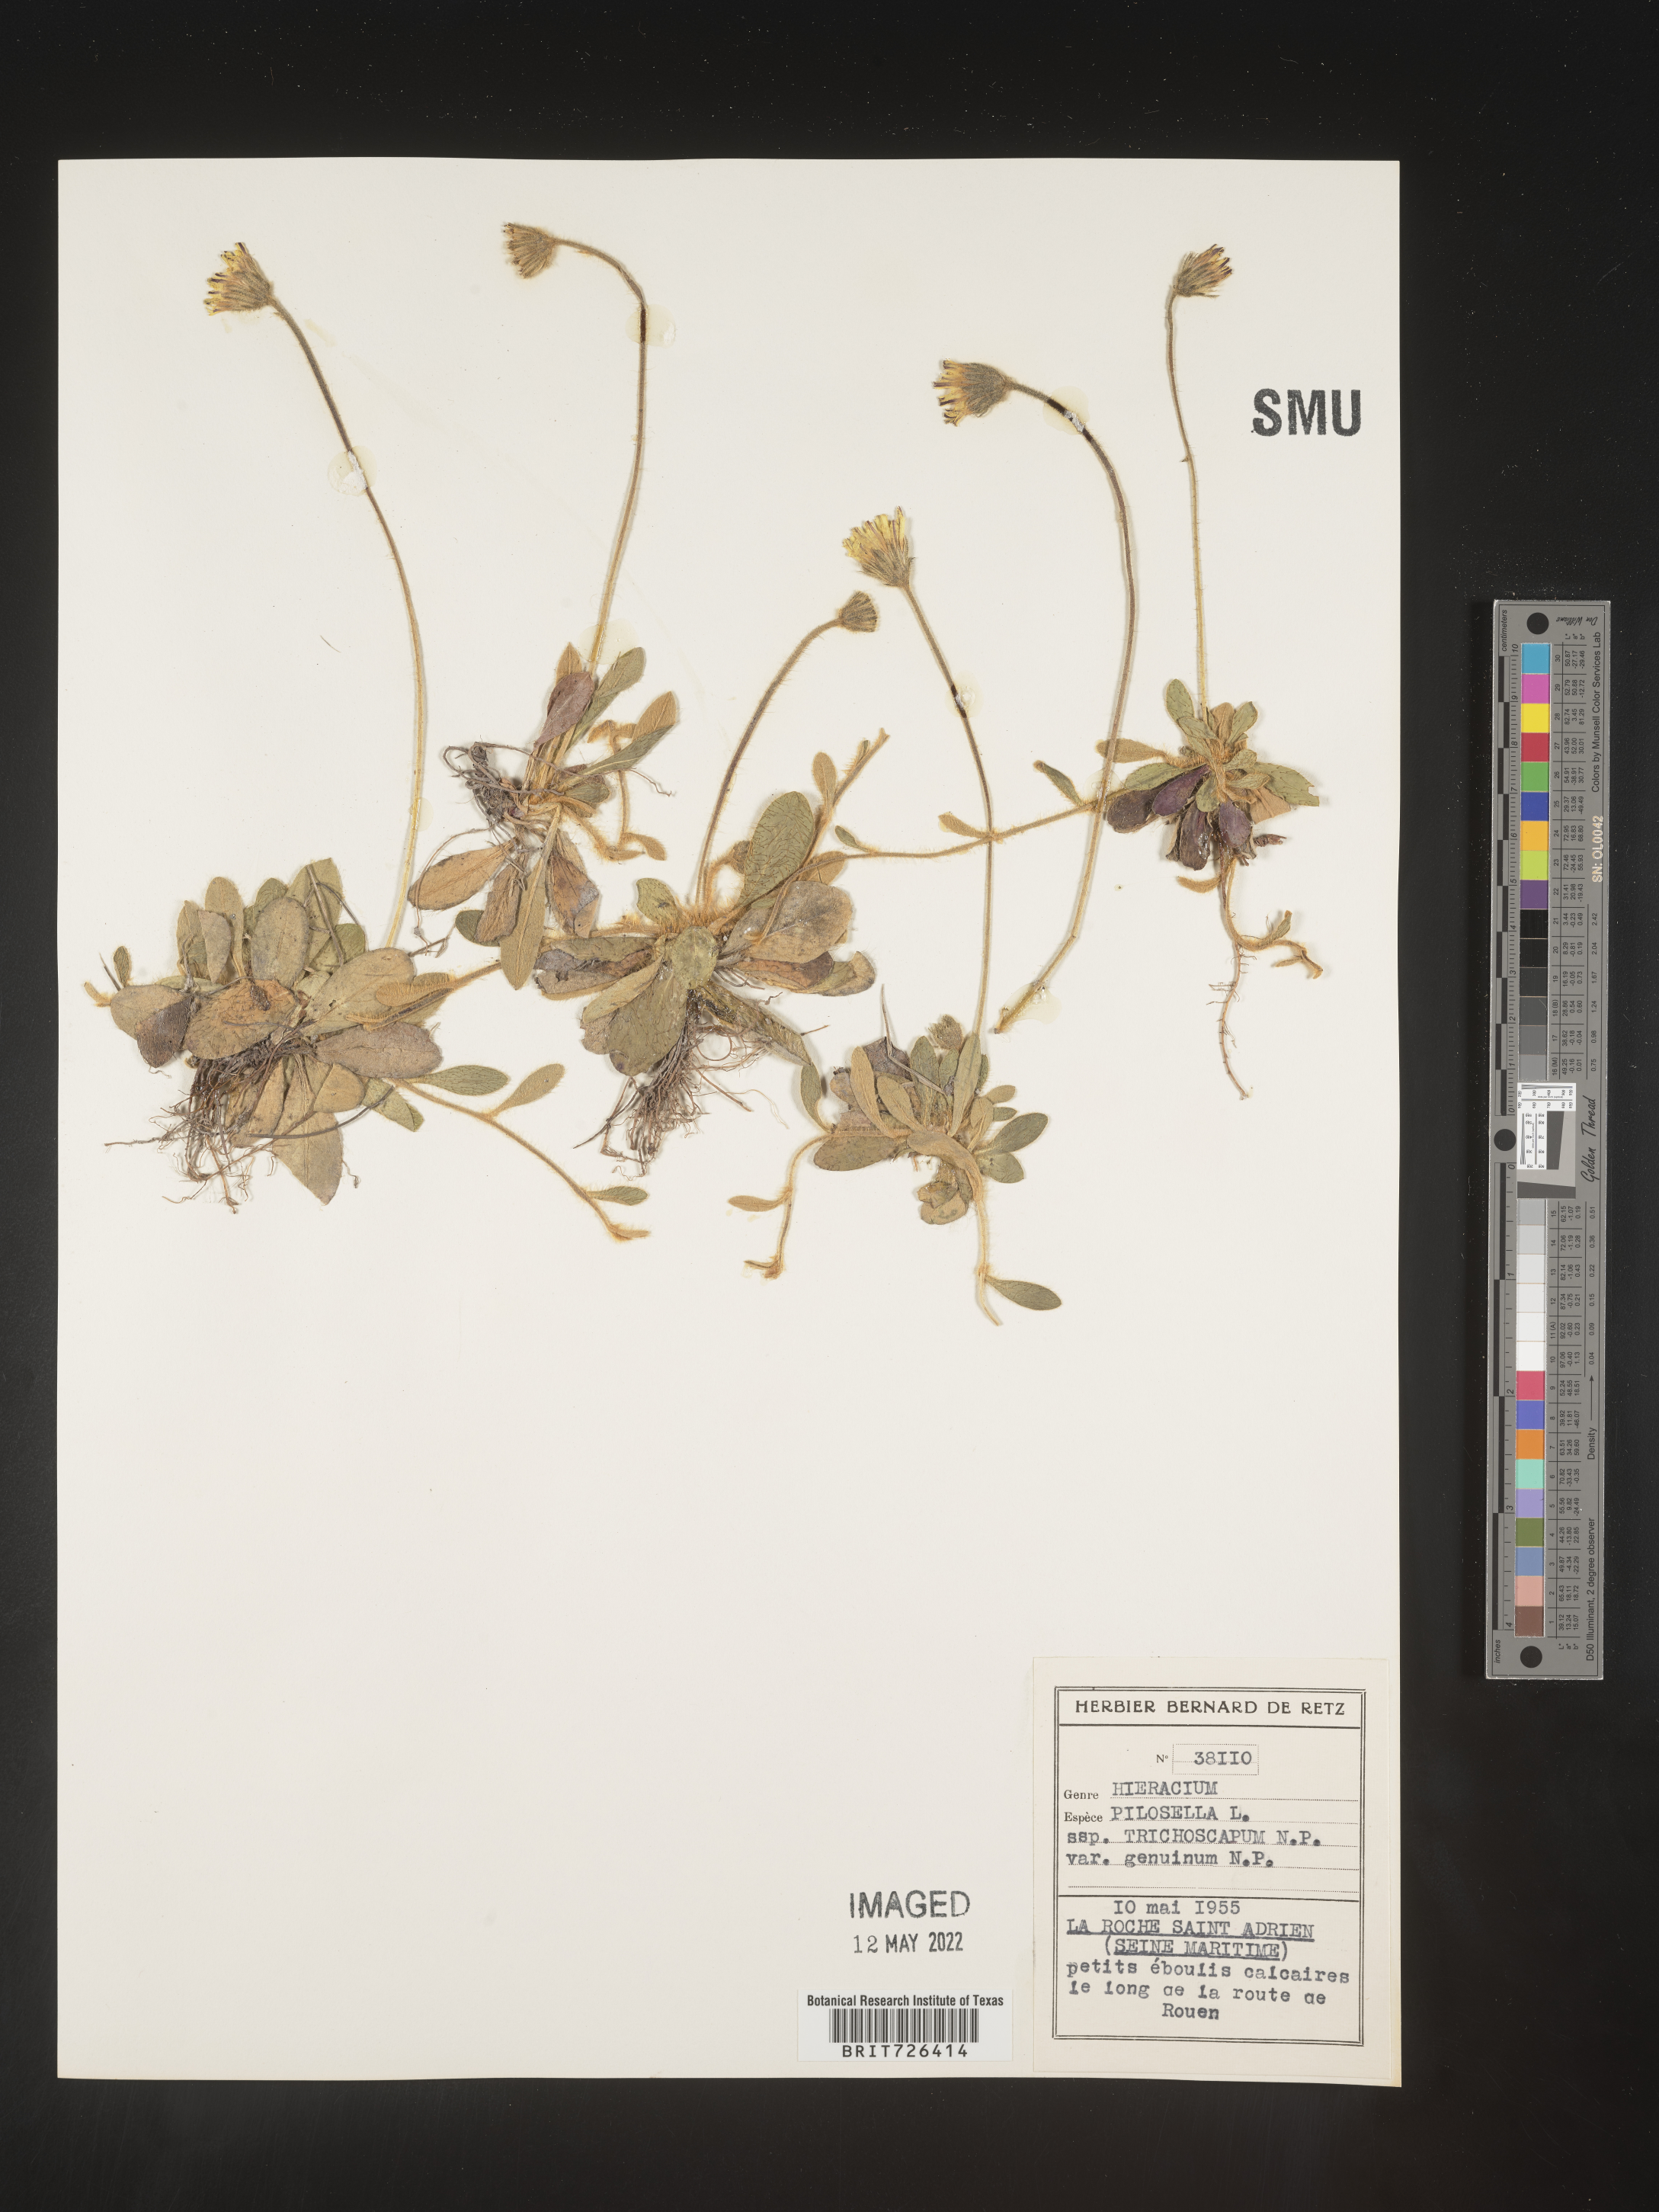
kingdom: Plantae
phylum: Tracheophyta
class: Magnoliopsida
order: Asterales
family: Asteraceae
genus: Hieracium
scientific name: Hieracium
